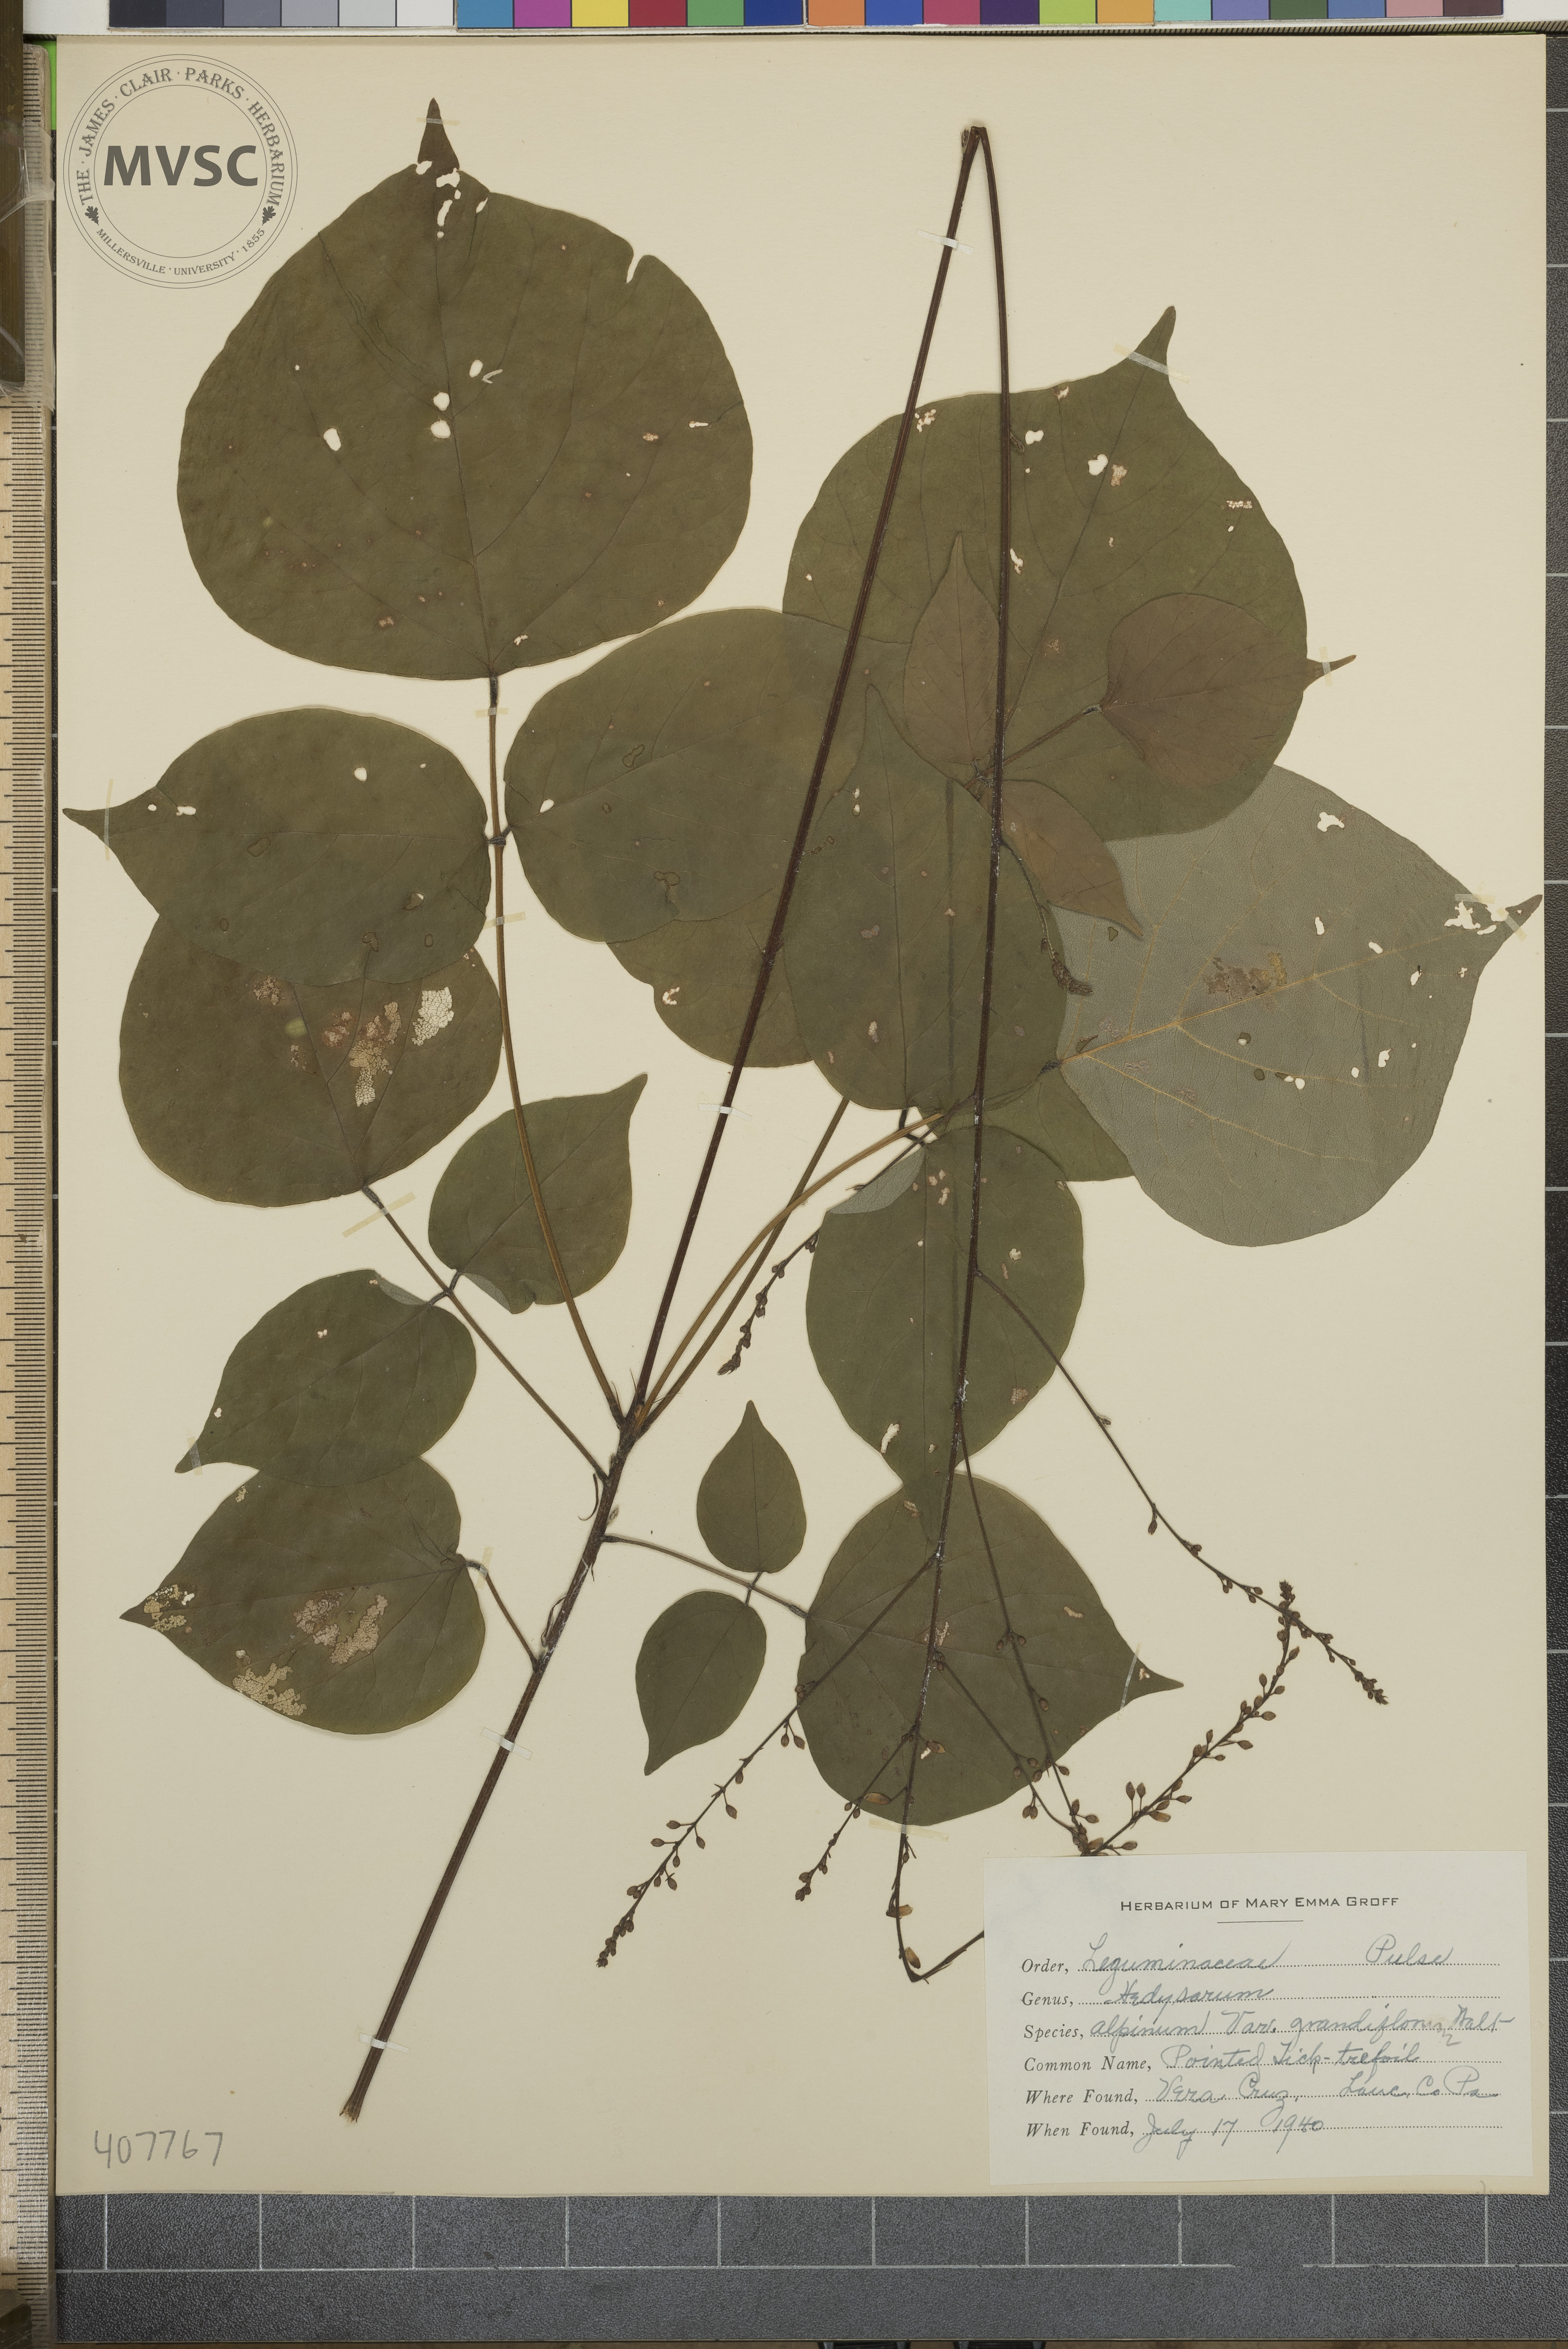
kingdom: Plantae
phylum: Tracheophyta
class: Magnoliopsida
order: Fabales
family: Fabaceae
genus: Hylodesmum
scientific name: Hylodesmum glutinosum
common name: Pointed Tick-trefoil
